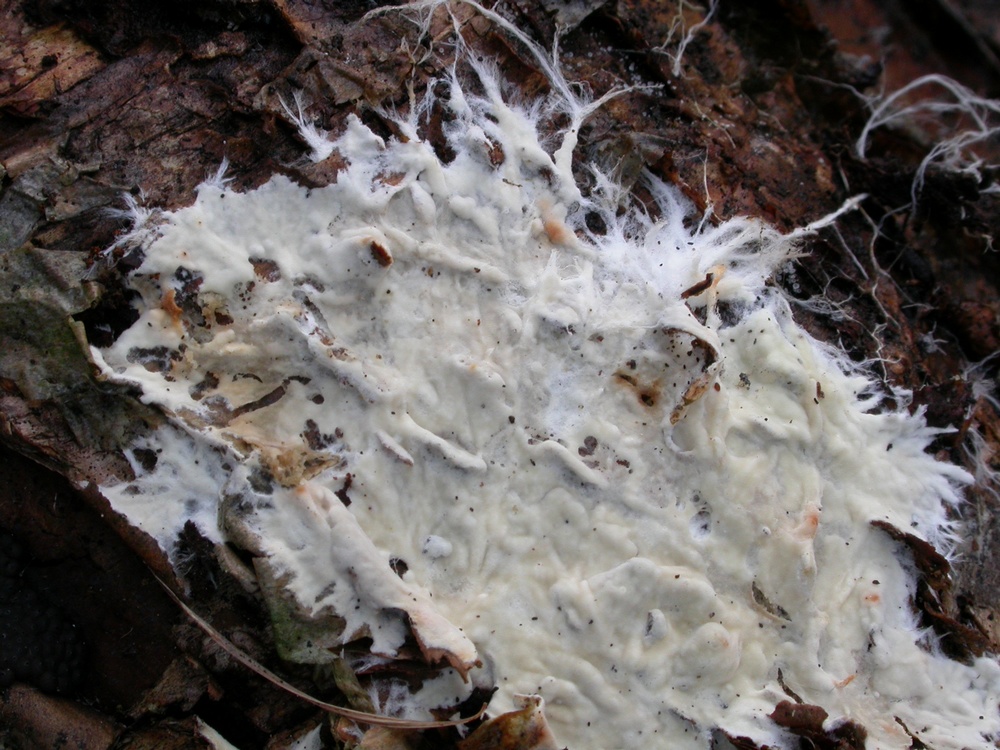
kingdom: Fungi
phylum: Basidiomycota
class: Agaricomycetes
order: Polyporales
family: Phanerochaetaceae
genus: Phanerochaete
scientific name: Phanerochaete velutina
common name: dunet randtråd
